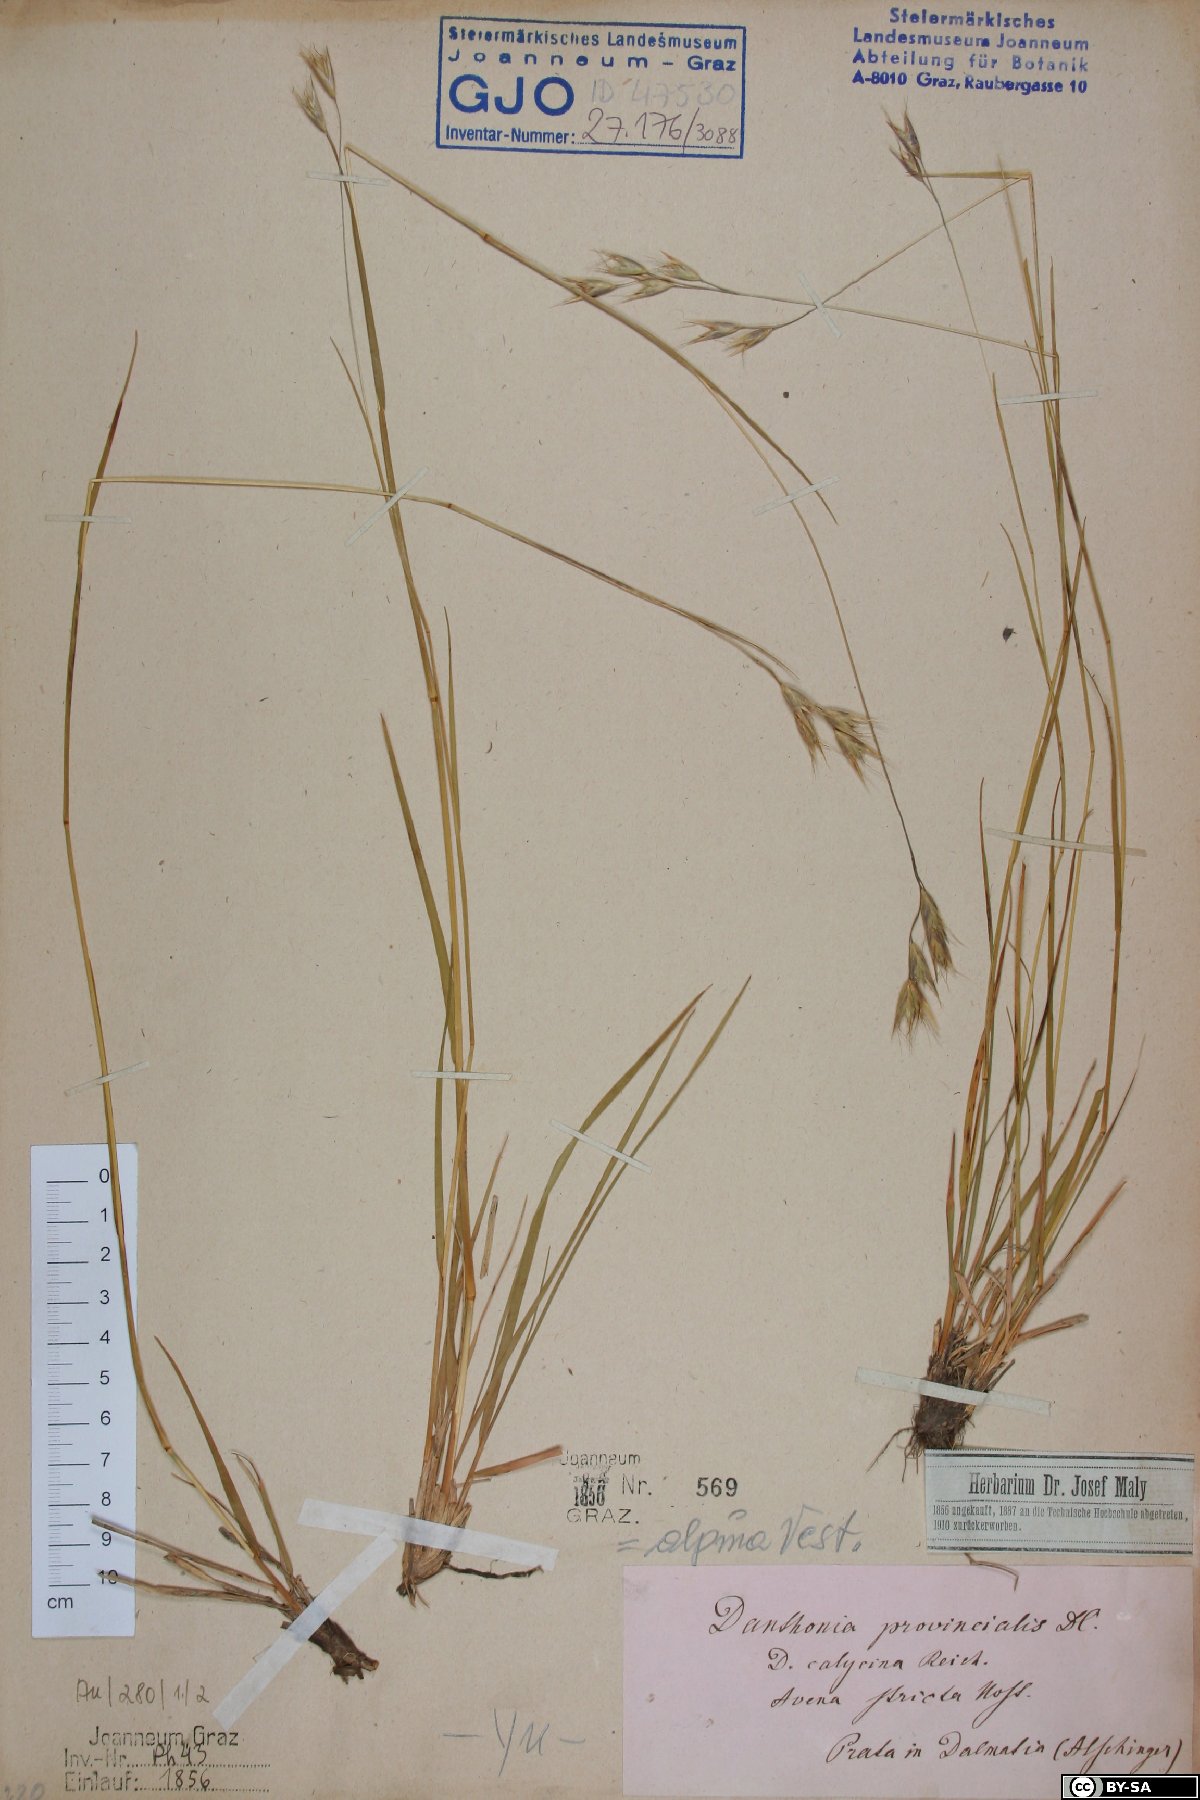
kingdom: Plantae
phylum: Tracheophyta
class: Liliopsida
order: Poales
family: Poaceae
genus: Danthonia
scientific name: Danthonia alpina
